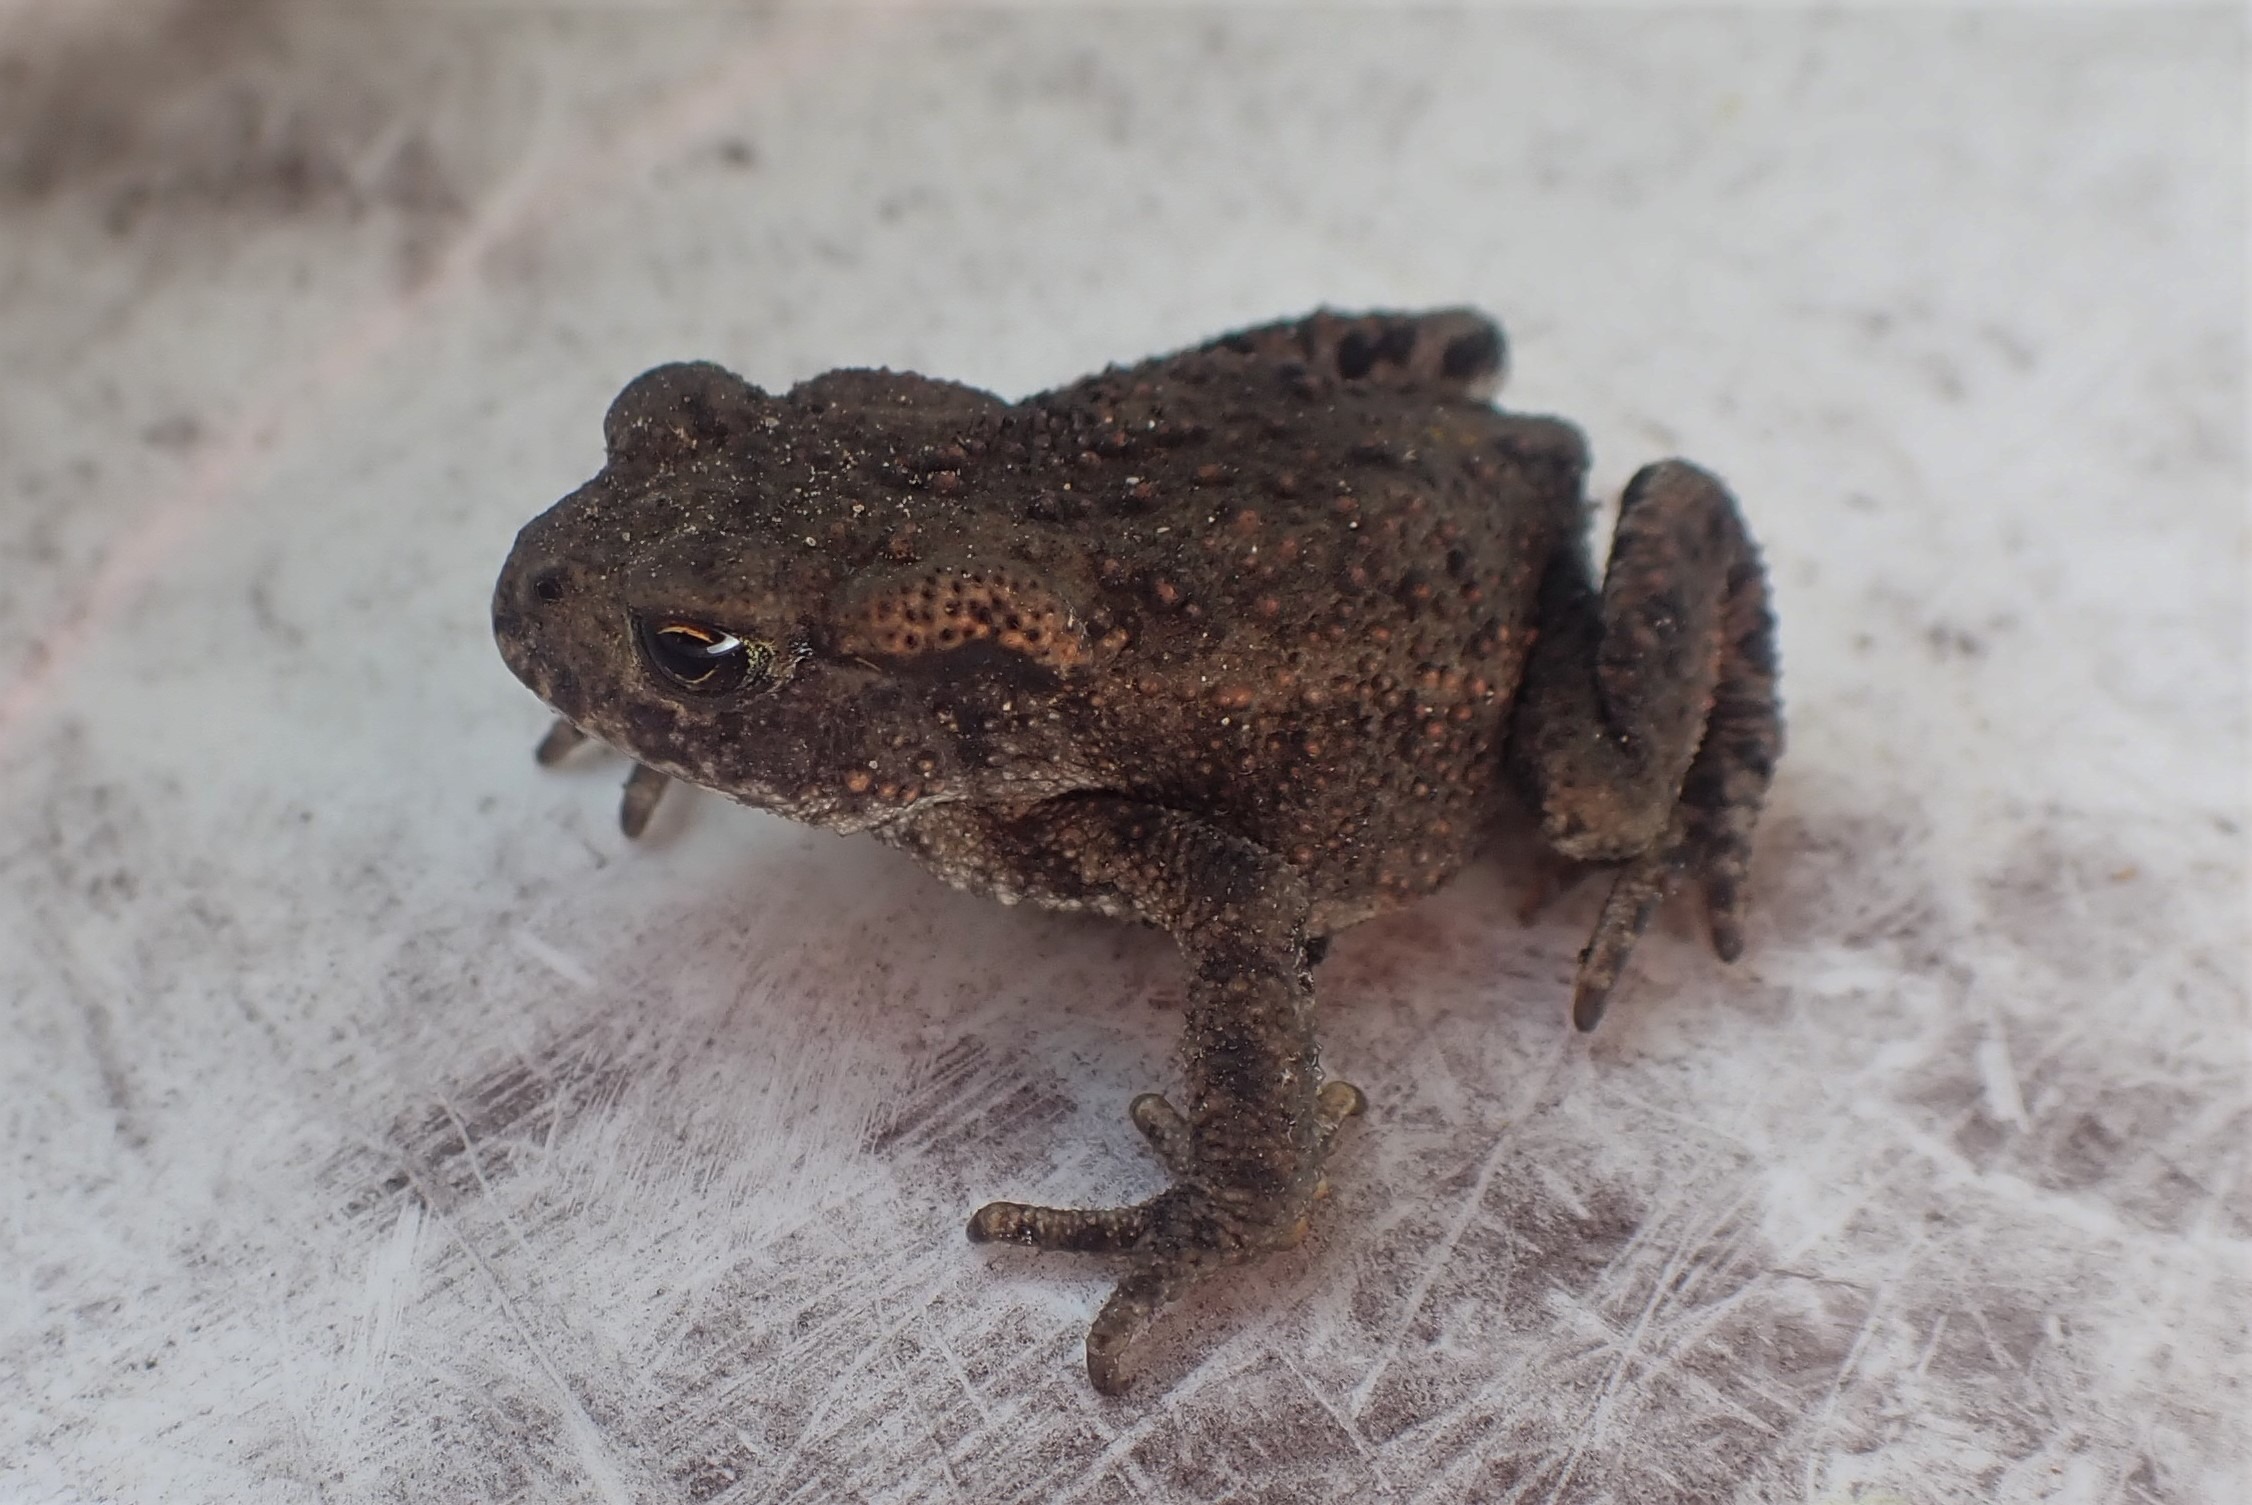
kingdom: Animalia
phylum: Chordata
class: Amphibia
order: Anura
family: Bufonidae
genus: Bufo
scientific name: Bufo bufo
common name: Skrubtudse
